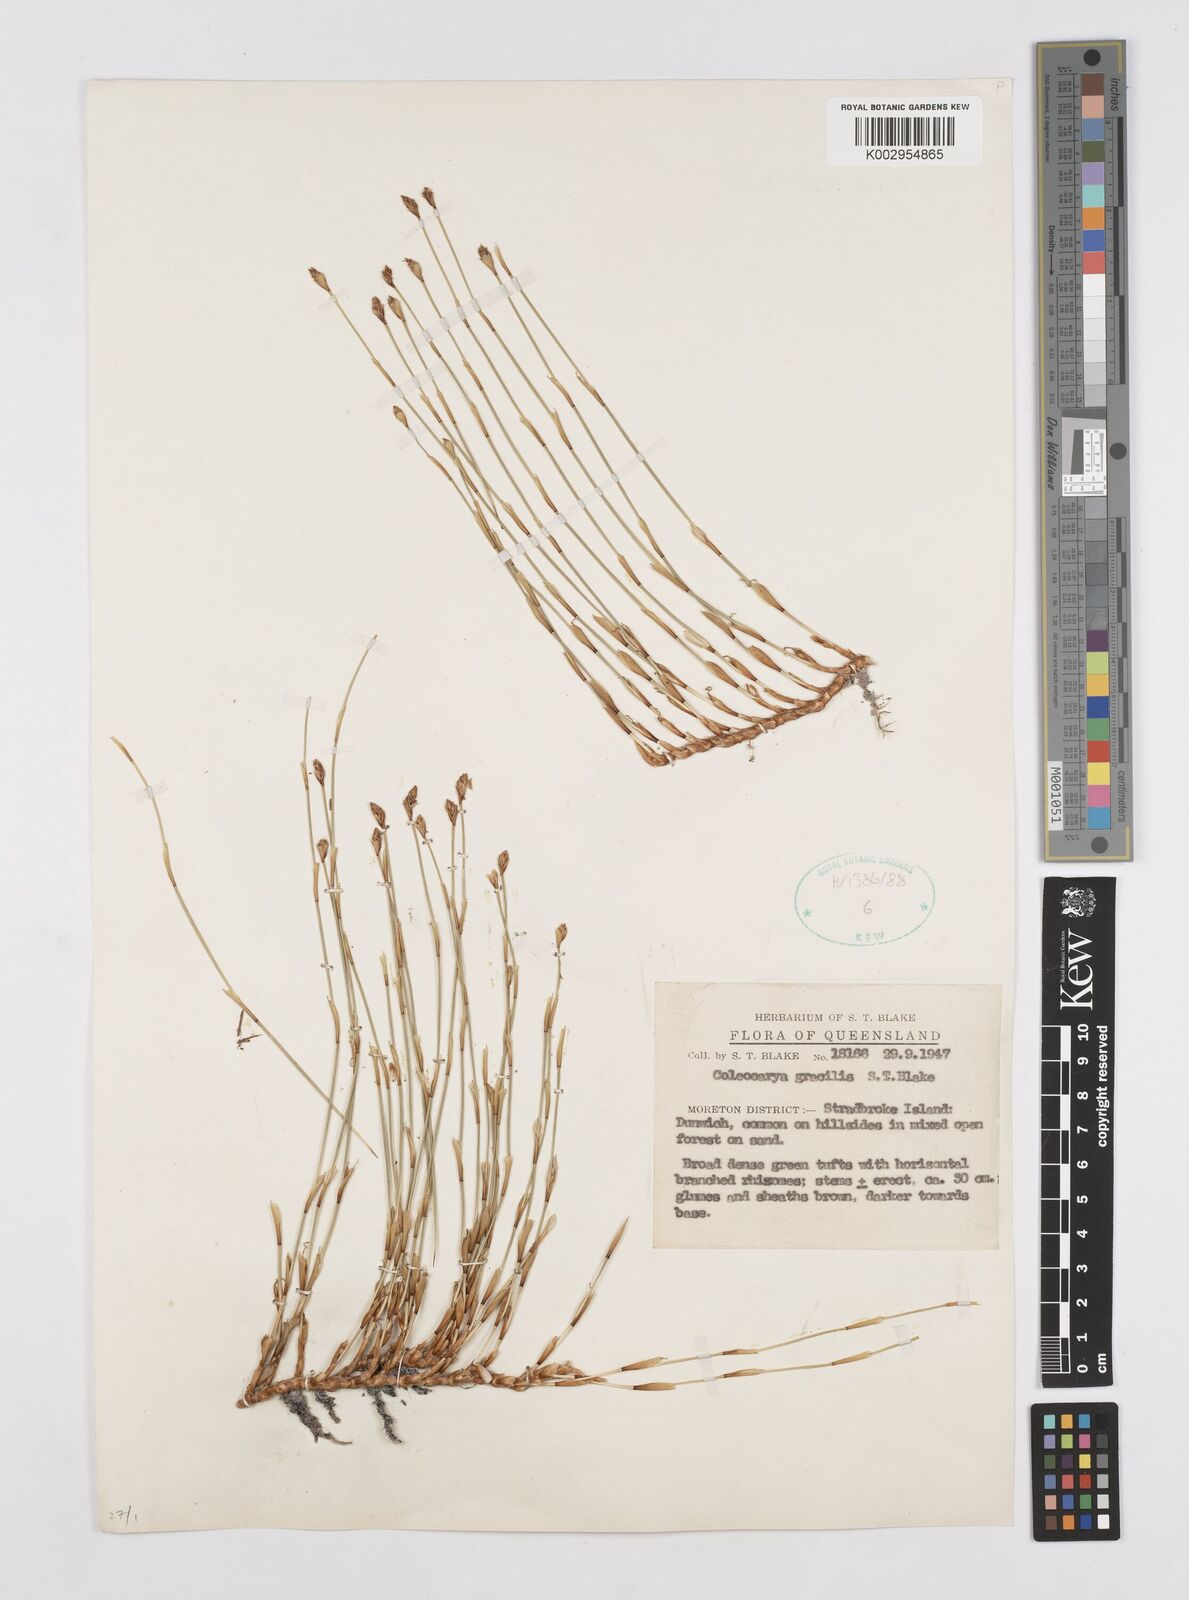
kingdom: Plantae
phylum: Tracheophyta
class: Liliopsida
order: Poales
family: Restionaceae
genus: Coleocarya
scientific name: Coleocarya gracilis
